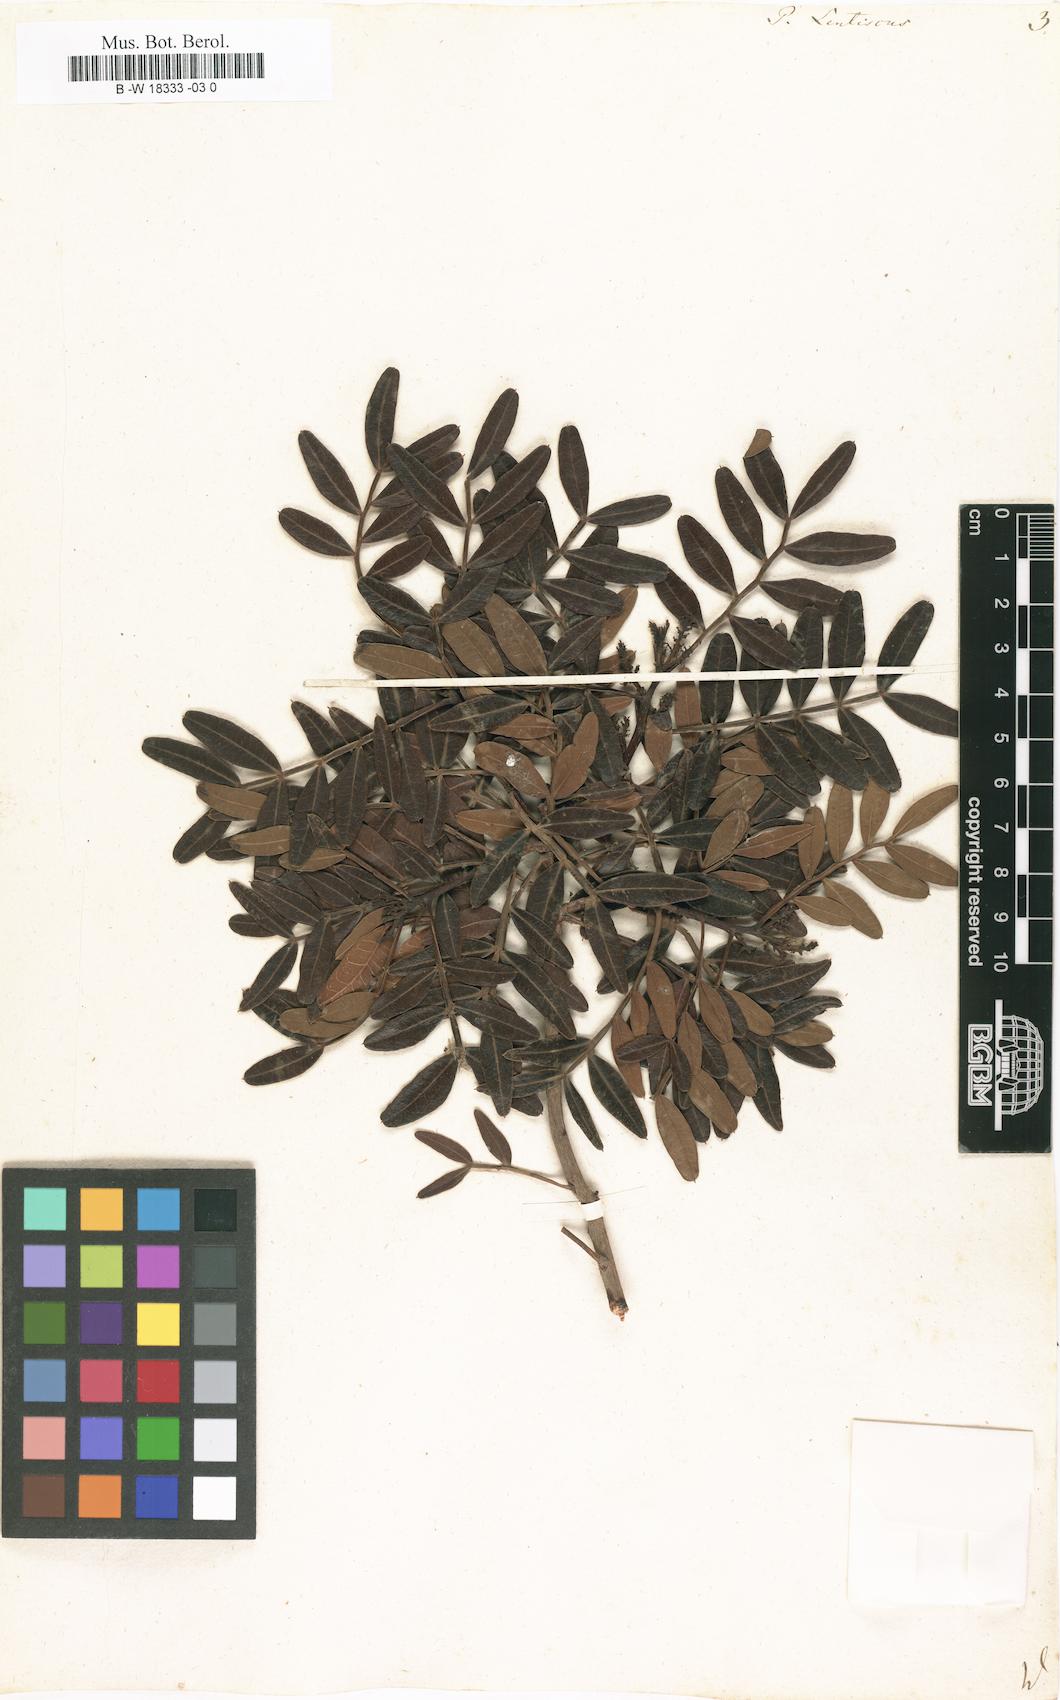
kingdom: Plantae
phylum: Tracheophyta
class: Magnoliopsida
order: Sapindales
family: Anacardiaceae
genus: Pistacia
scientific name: Pistacia lentiscus
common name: Lentisk
